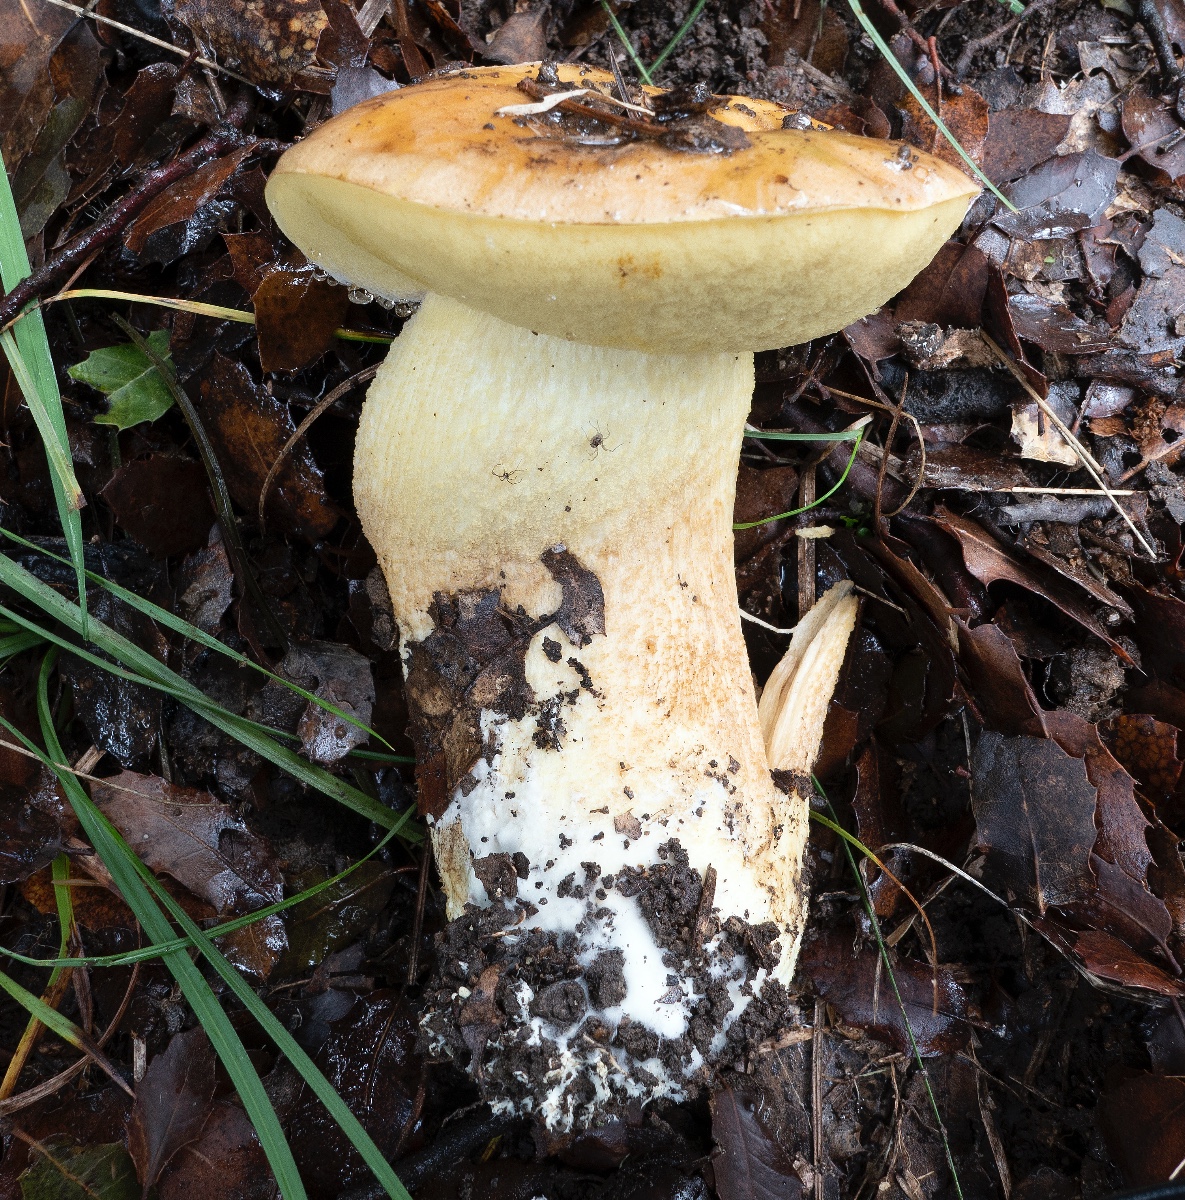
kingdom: Fungi
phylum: Basidiomycota
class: Agaricomycetes
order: Boletales
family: Boletaceae
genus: Leccinellum
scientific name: Leccinellum crocipodium
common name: gul skælrørhat
